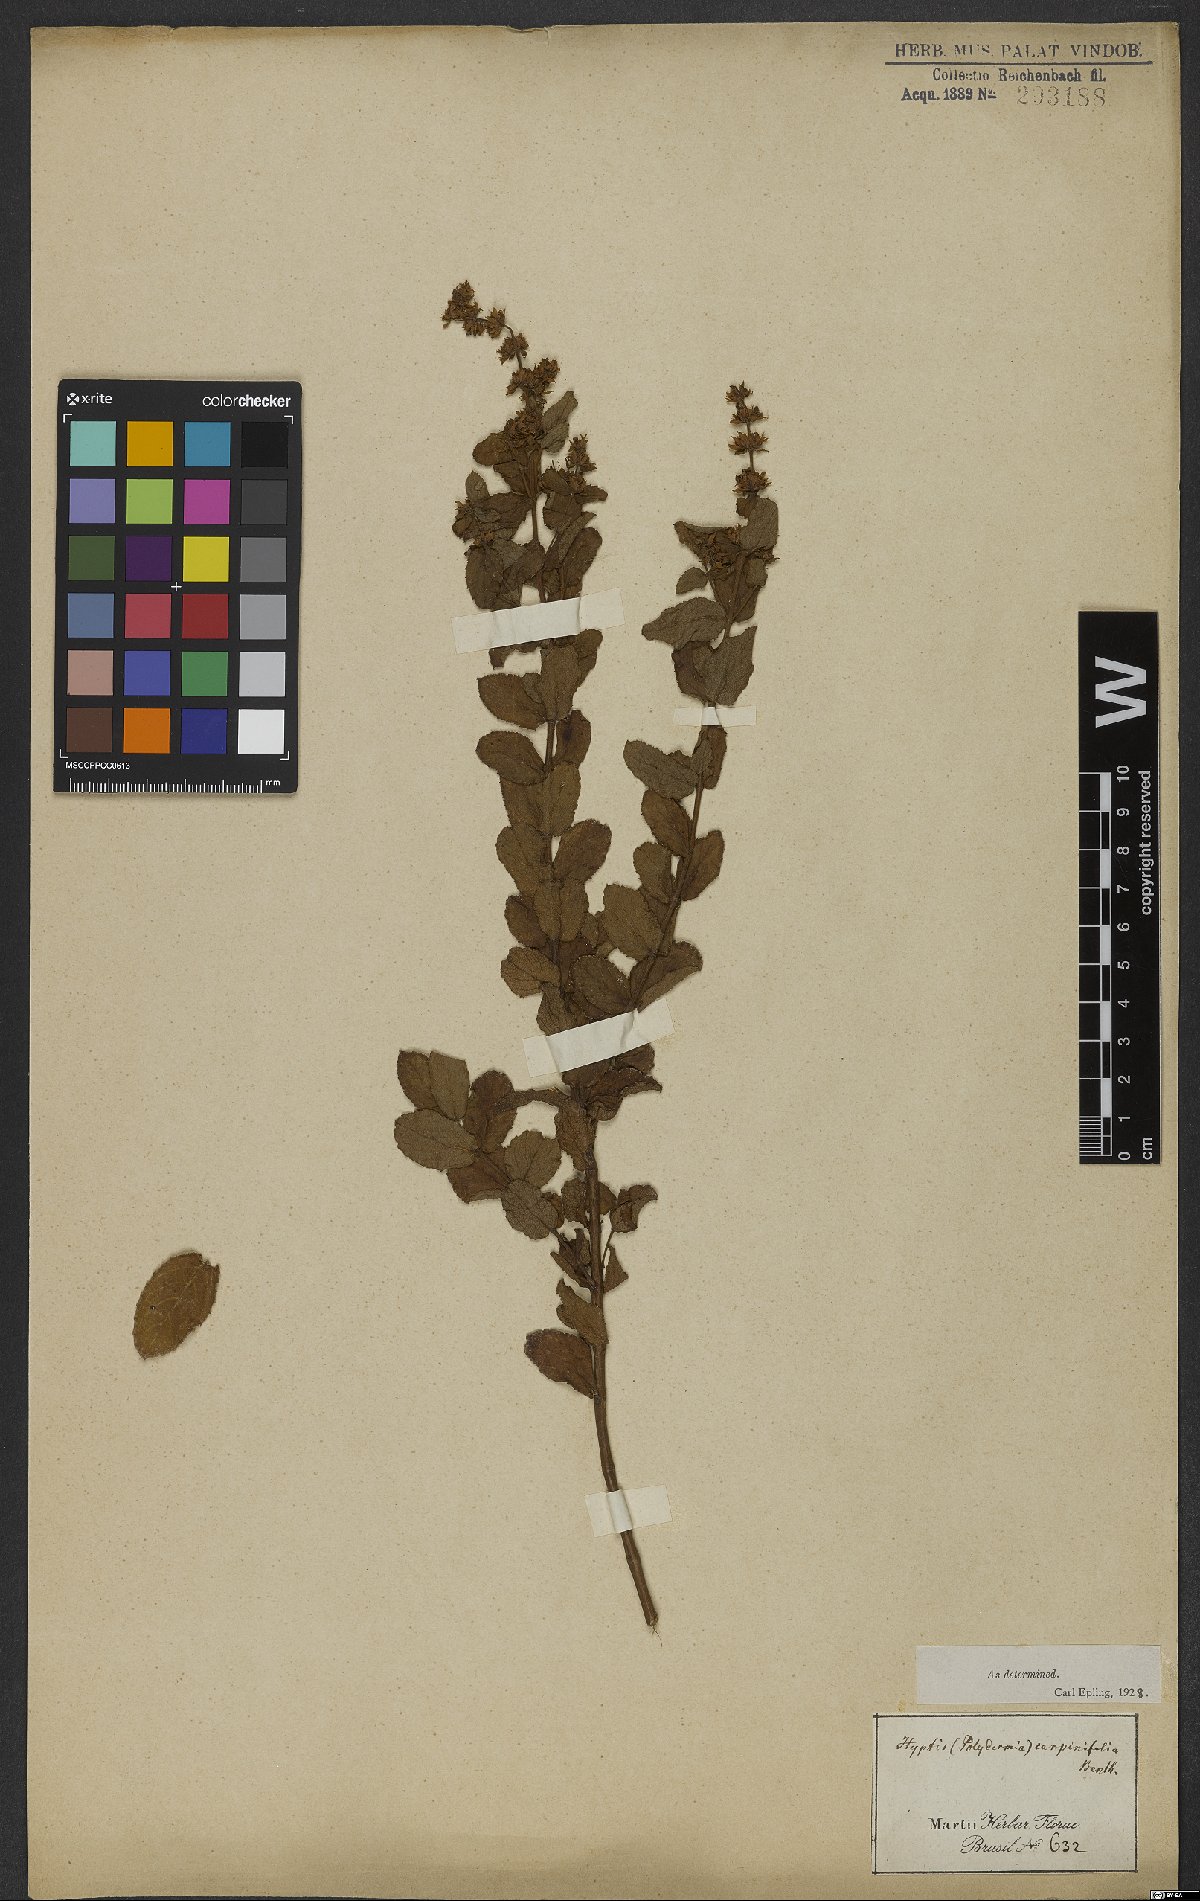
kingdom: Plantae
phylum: Tracheophyta
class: Magnoliopsida
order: Lamiales
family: Lamiaceae
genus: Cantinoa
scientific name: Cantinoa carpinifolia
